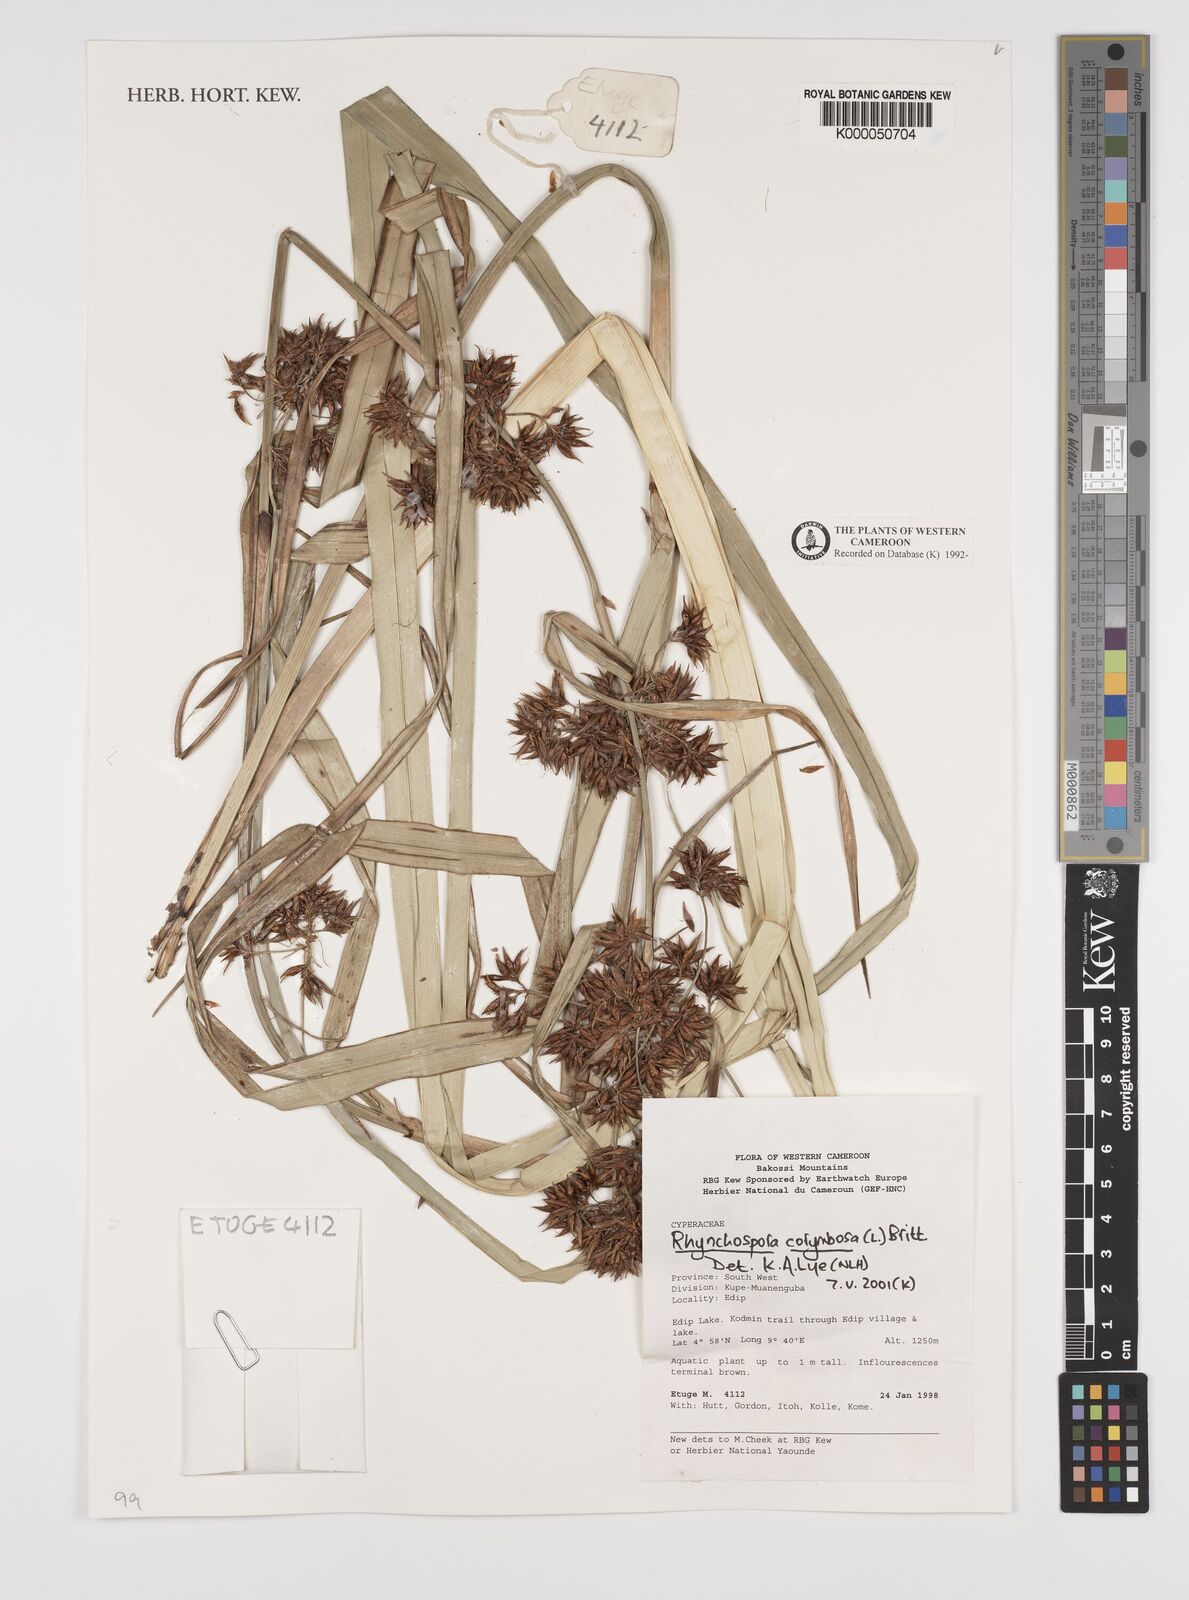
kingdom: Plantae
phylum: Tracheophyta
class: Liliopsida
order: Poales
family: Cyperaceae
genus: Rhynchospora
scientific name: Rhynchospora corymbosa
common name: Golden beak sedge
